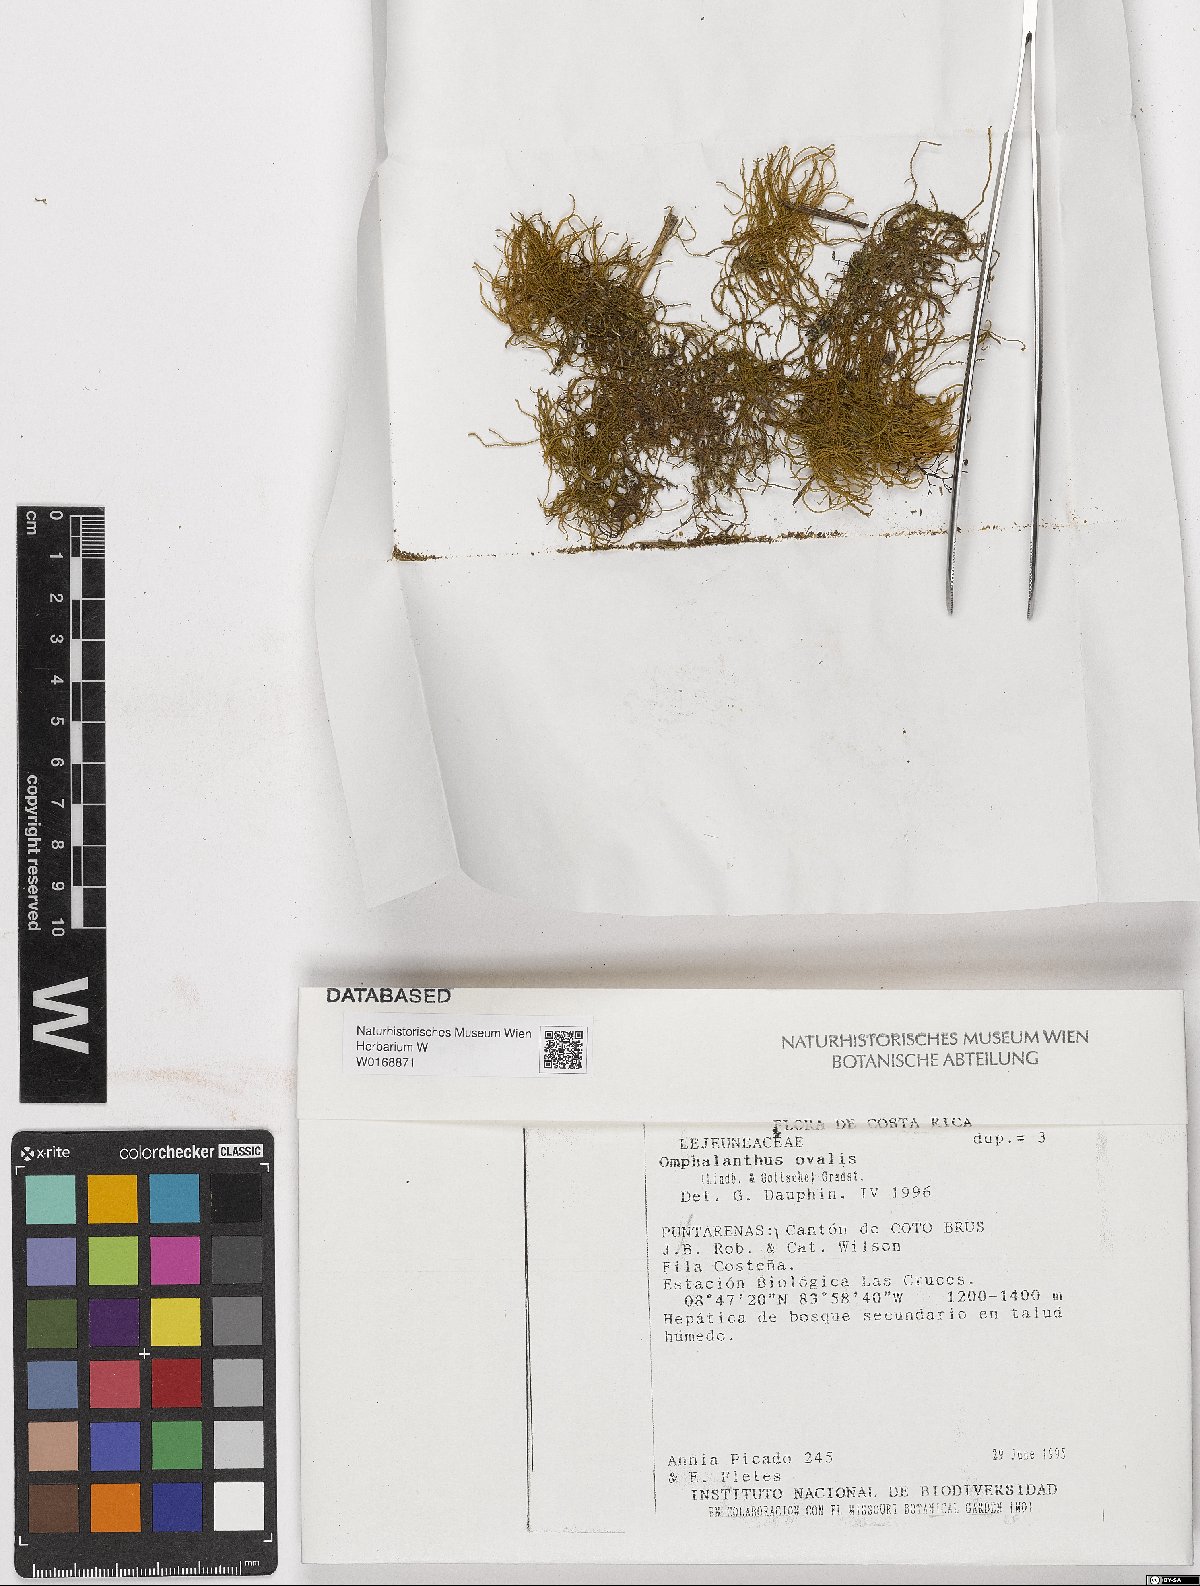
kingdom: Plantae
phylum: Marchantiophyta
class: Jungermanniopsida
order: Porellales
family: Lejeuneaceae
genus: Cheilolejeunea
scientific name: Cheilolejeunea ovalis
